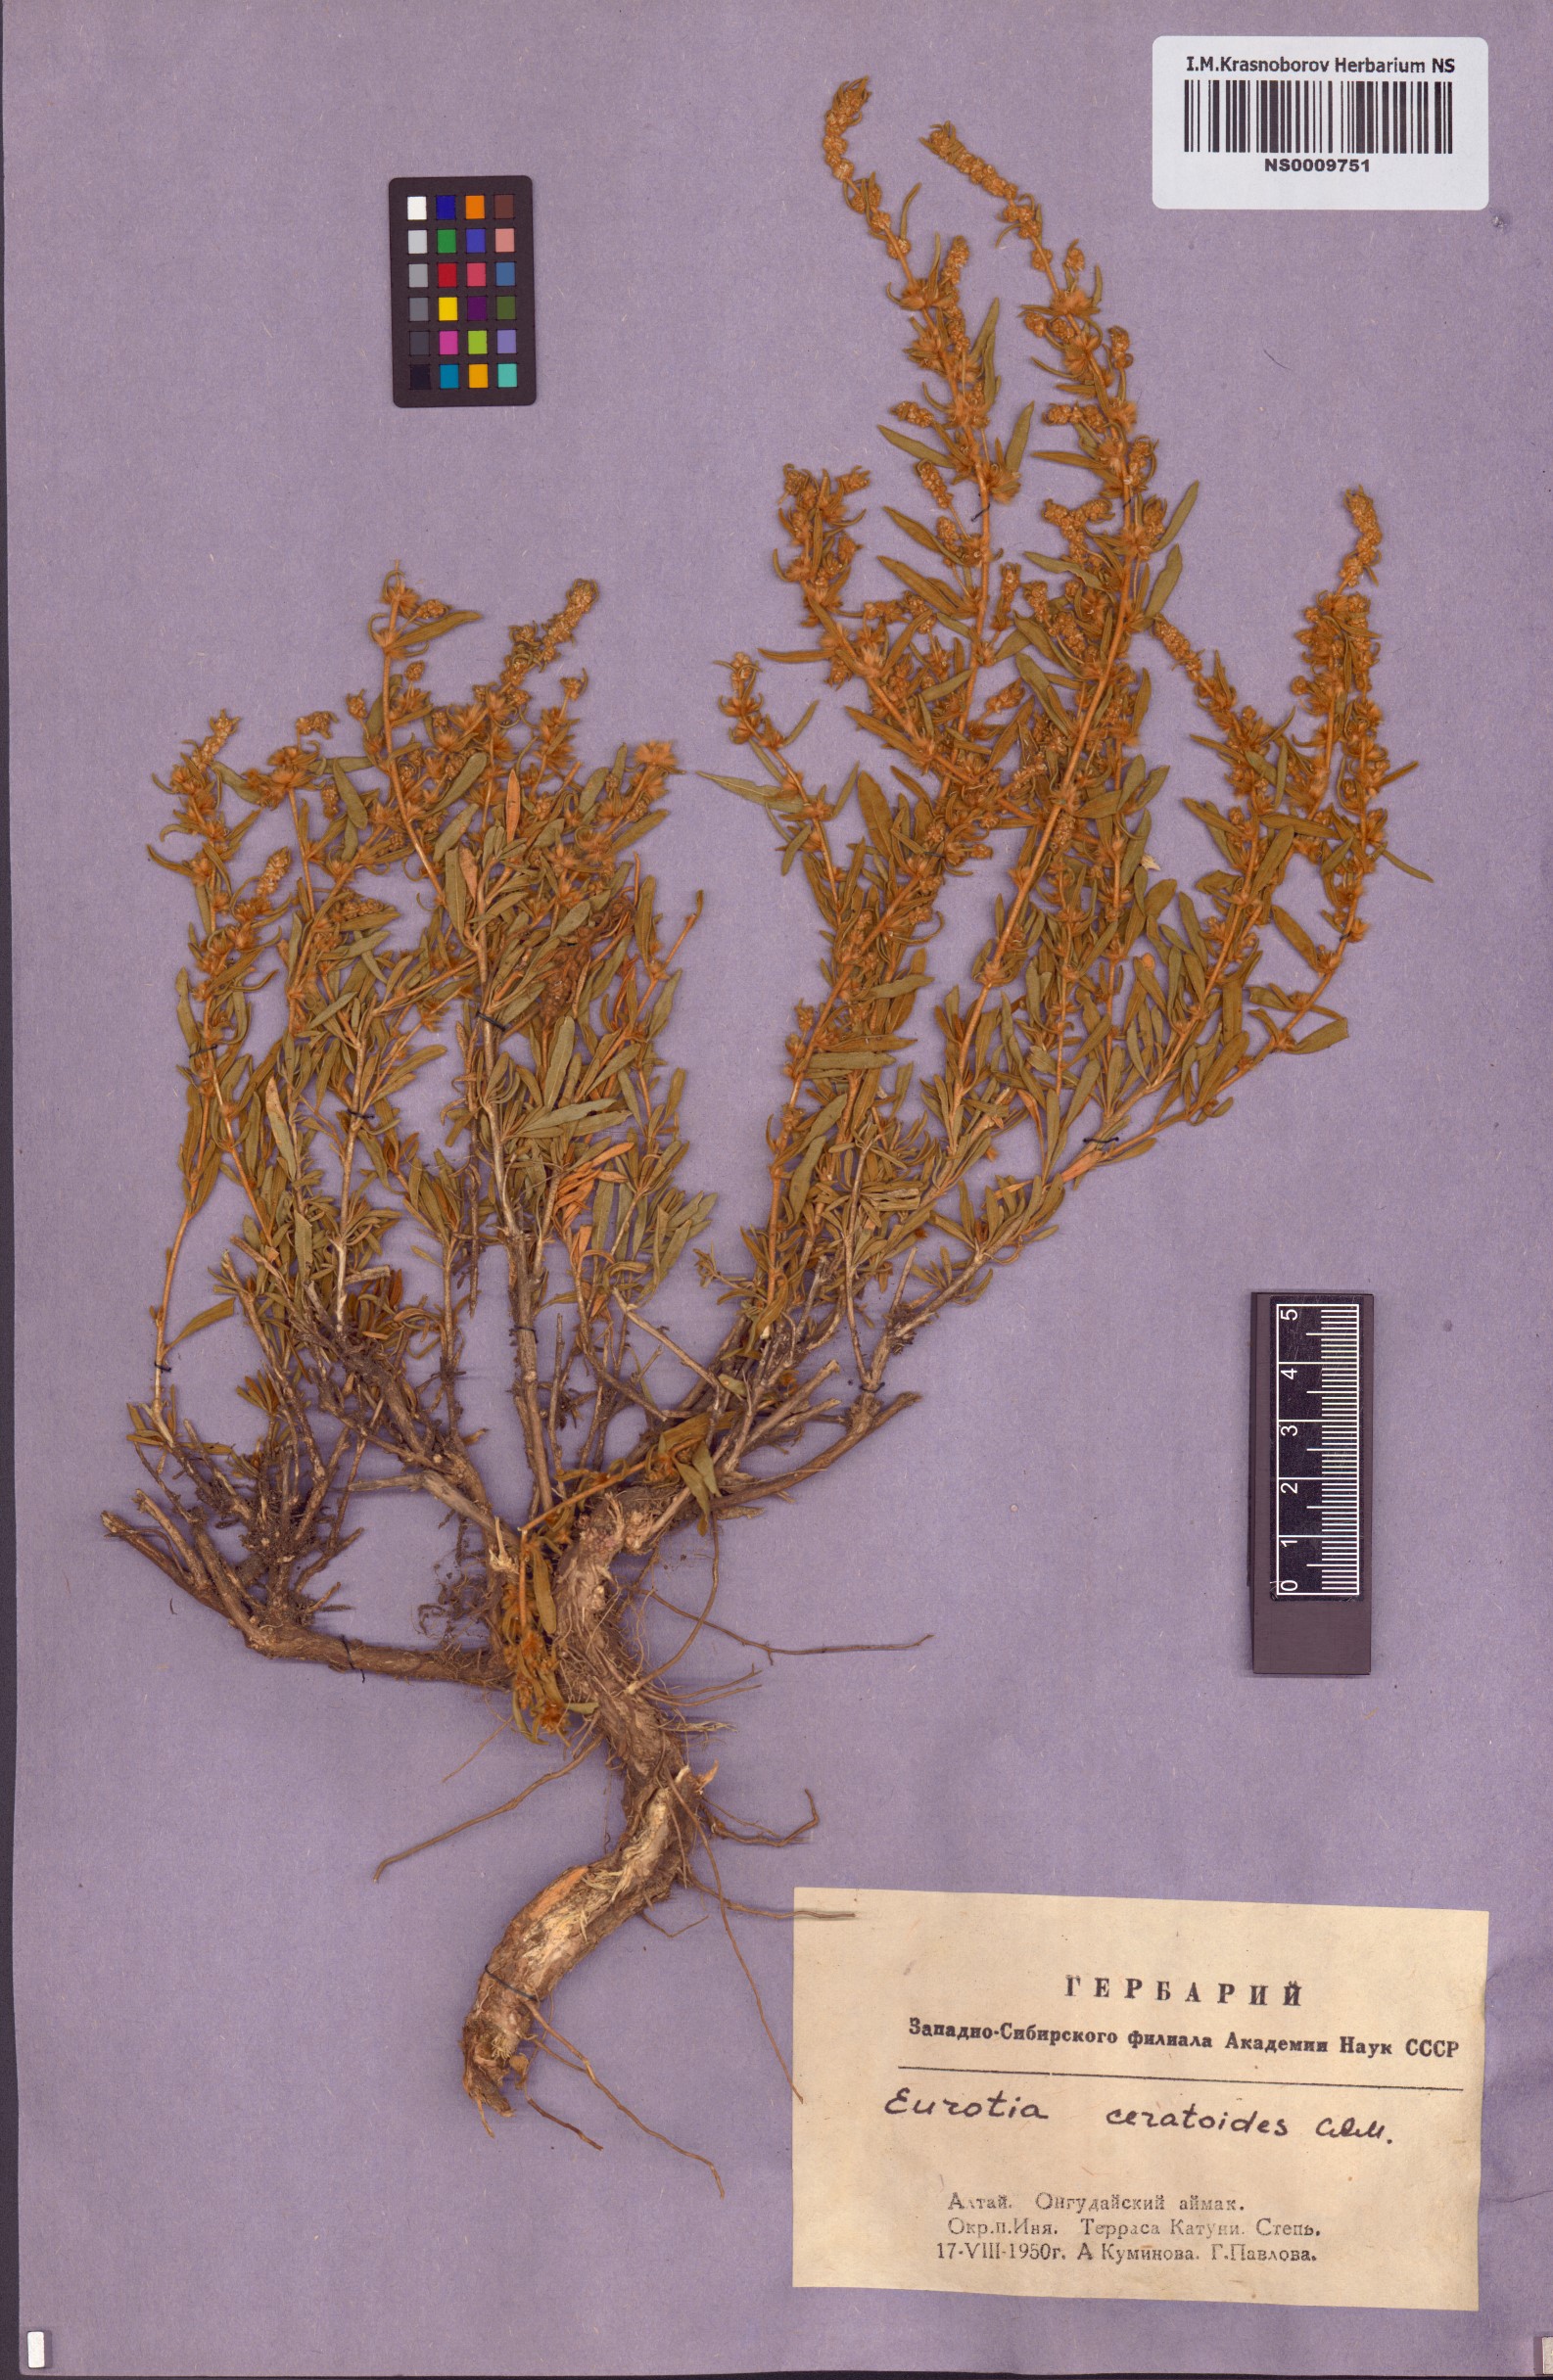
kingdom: Plantae
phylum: Tracheophyta
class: Magnoliopsida
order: Caryophyllales
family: Amaranthaceae
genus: Krascheninnikovia
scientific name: Krascheninnikovia ceratoides
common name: Pamirian winterfat
